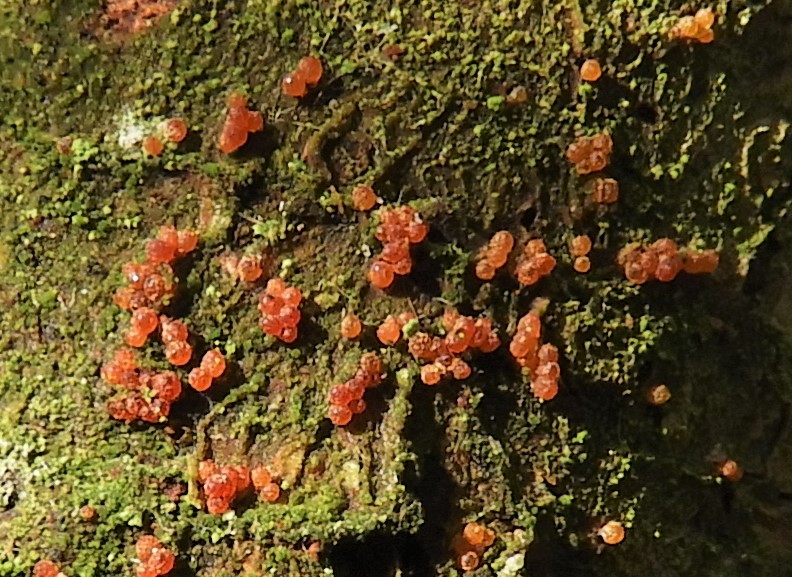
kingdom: Fungi
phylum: Ascomycota
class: Sordariomycetes
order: Hypocreales
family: Nectriaceae
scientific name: Nectriaceae
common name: cinnobersvampfamilien
